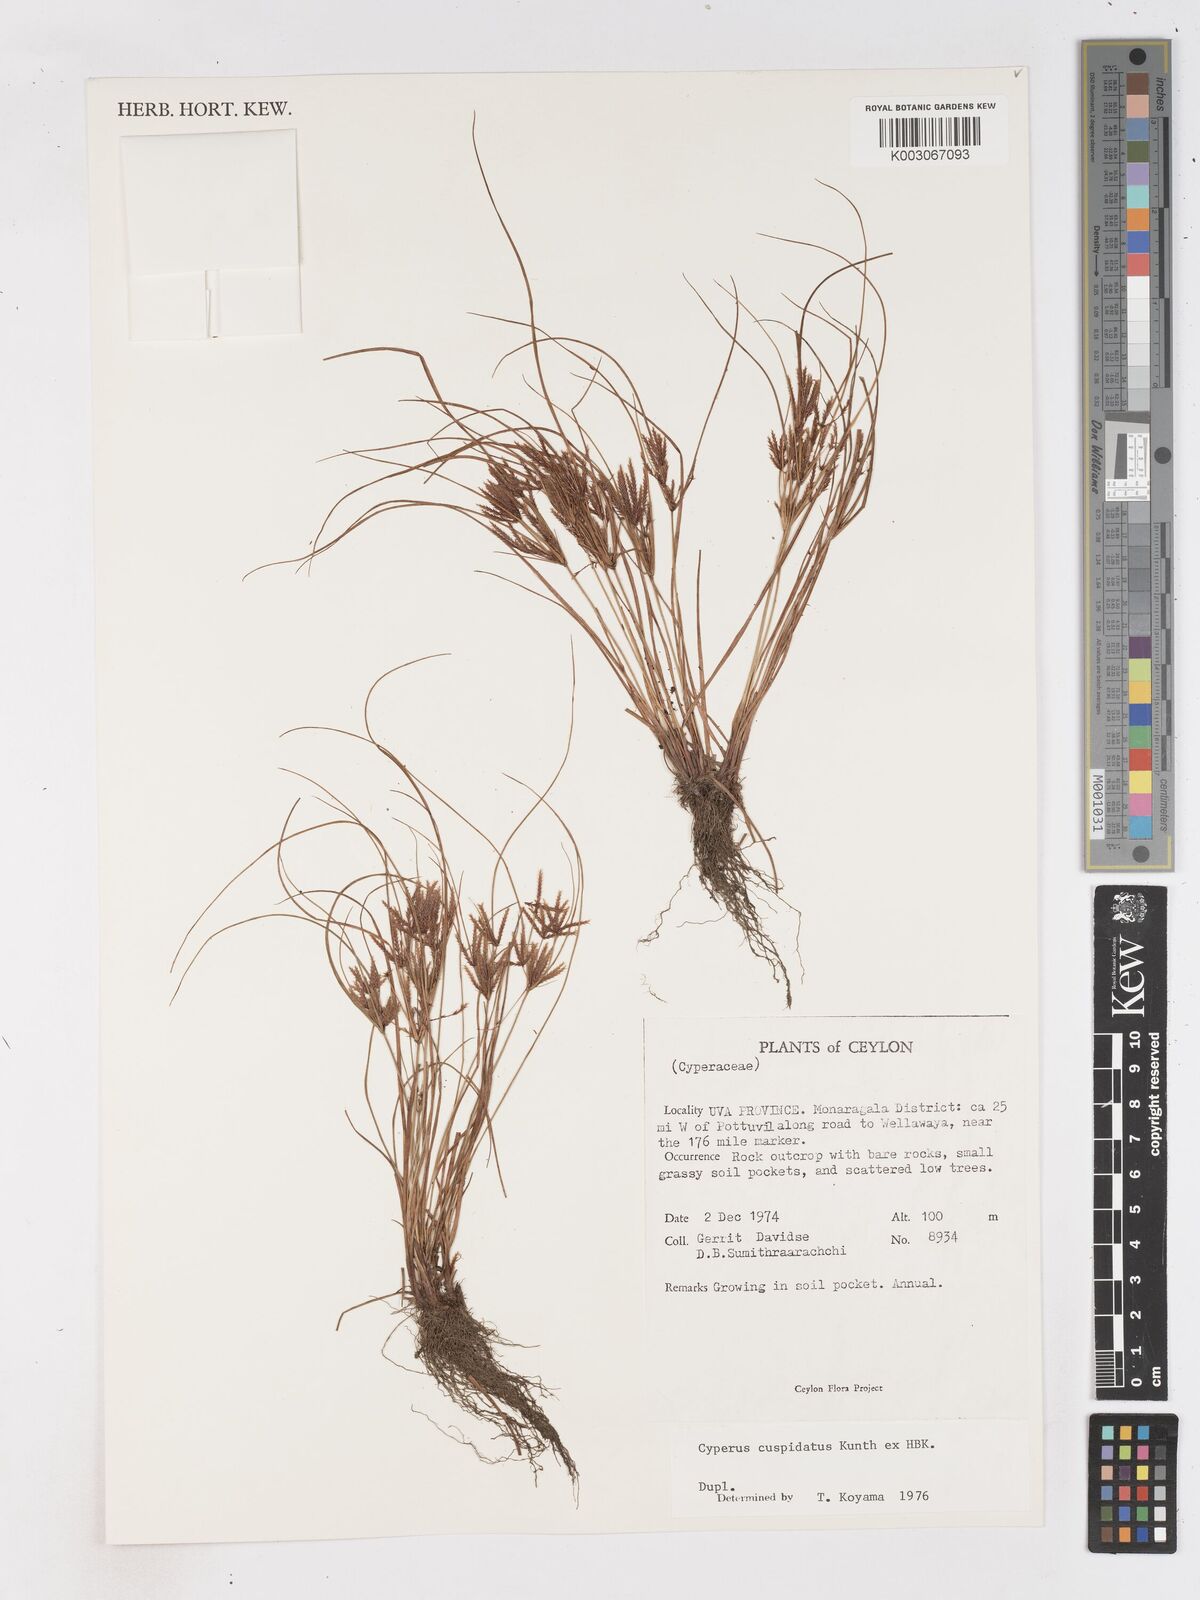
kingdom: Plantae
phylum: Tracheophyta
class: Liliopsida
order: Poales
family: Cyperaceae
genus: Cyperus
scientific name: Cyperus cuspidatus
